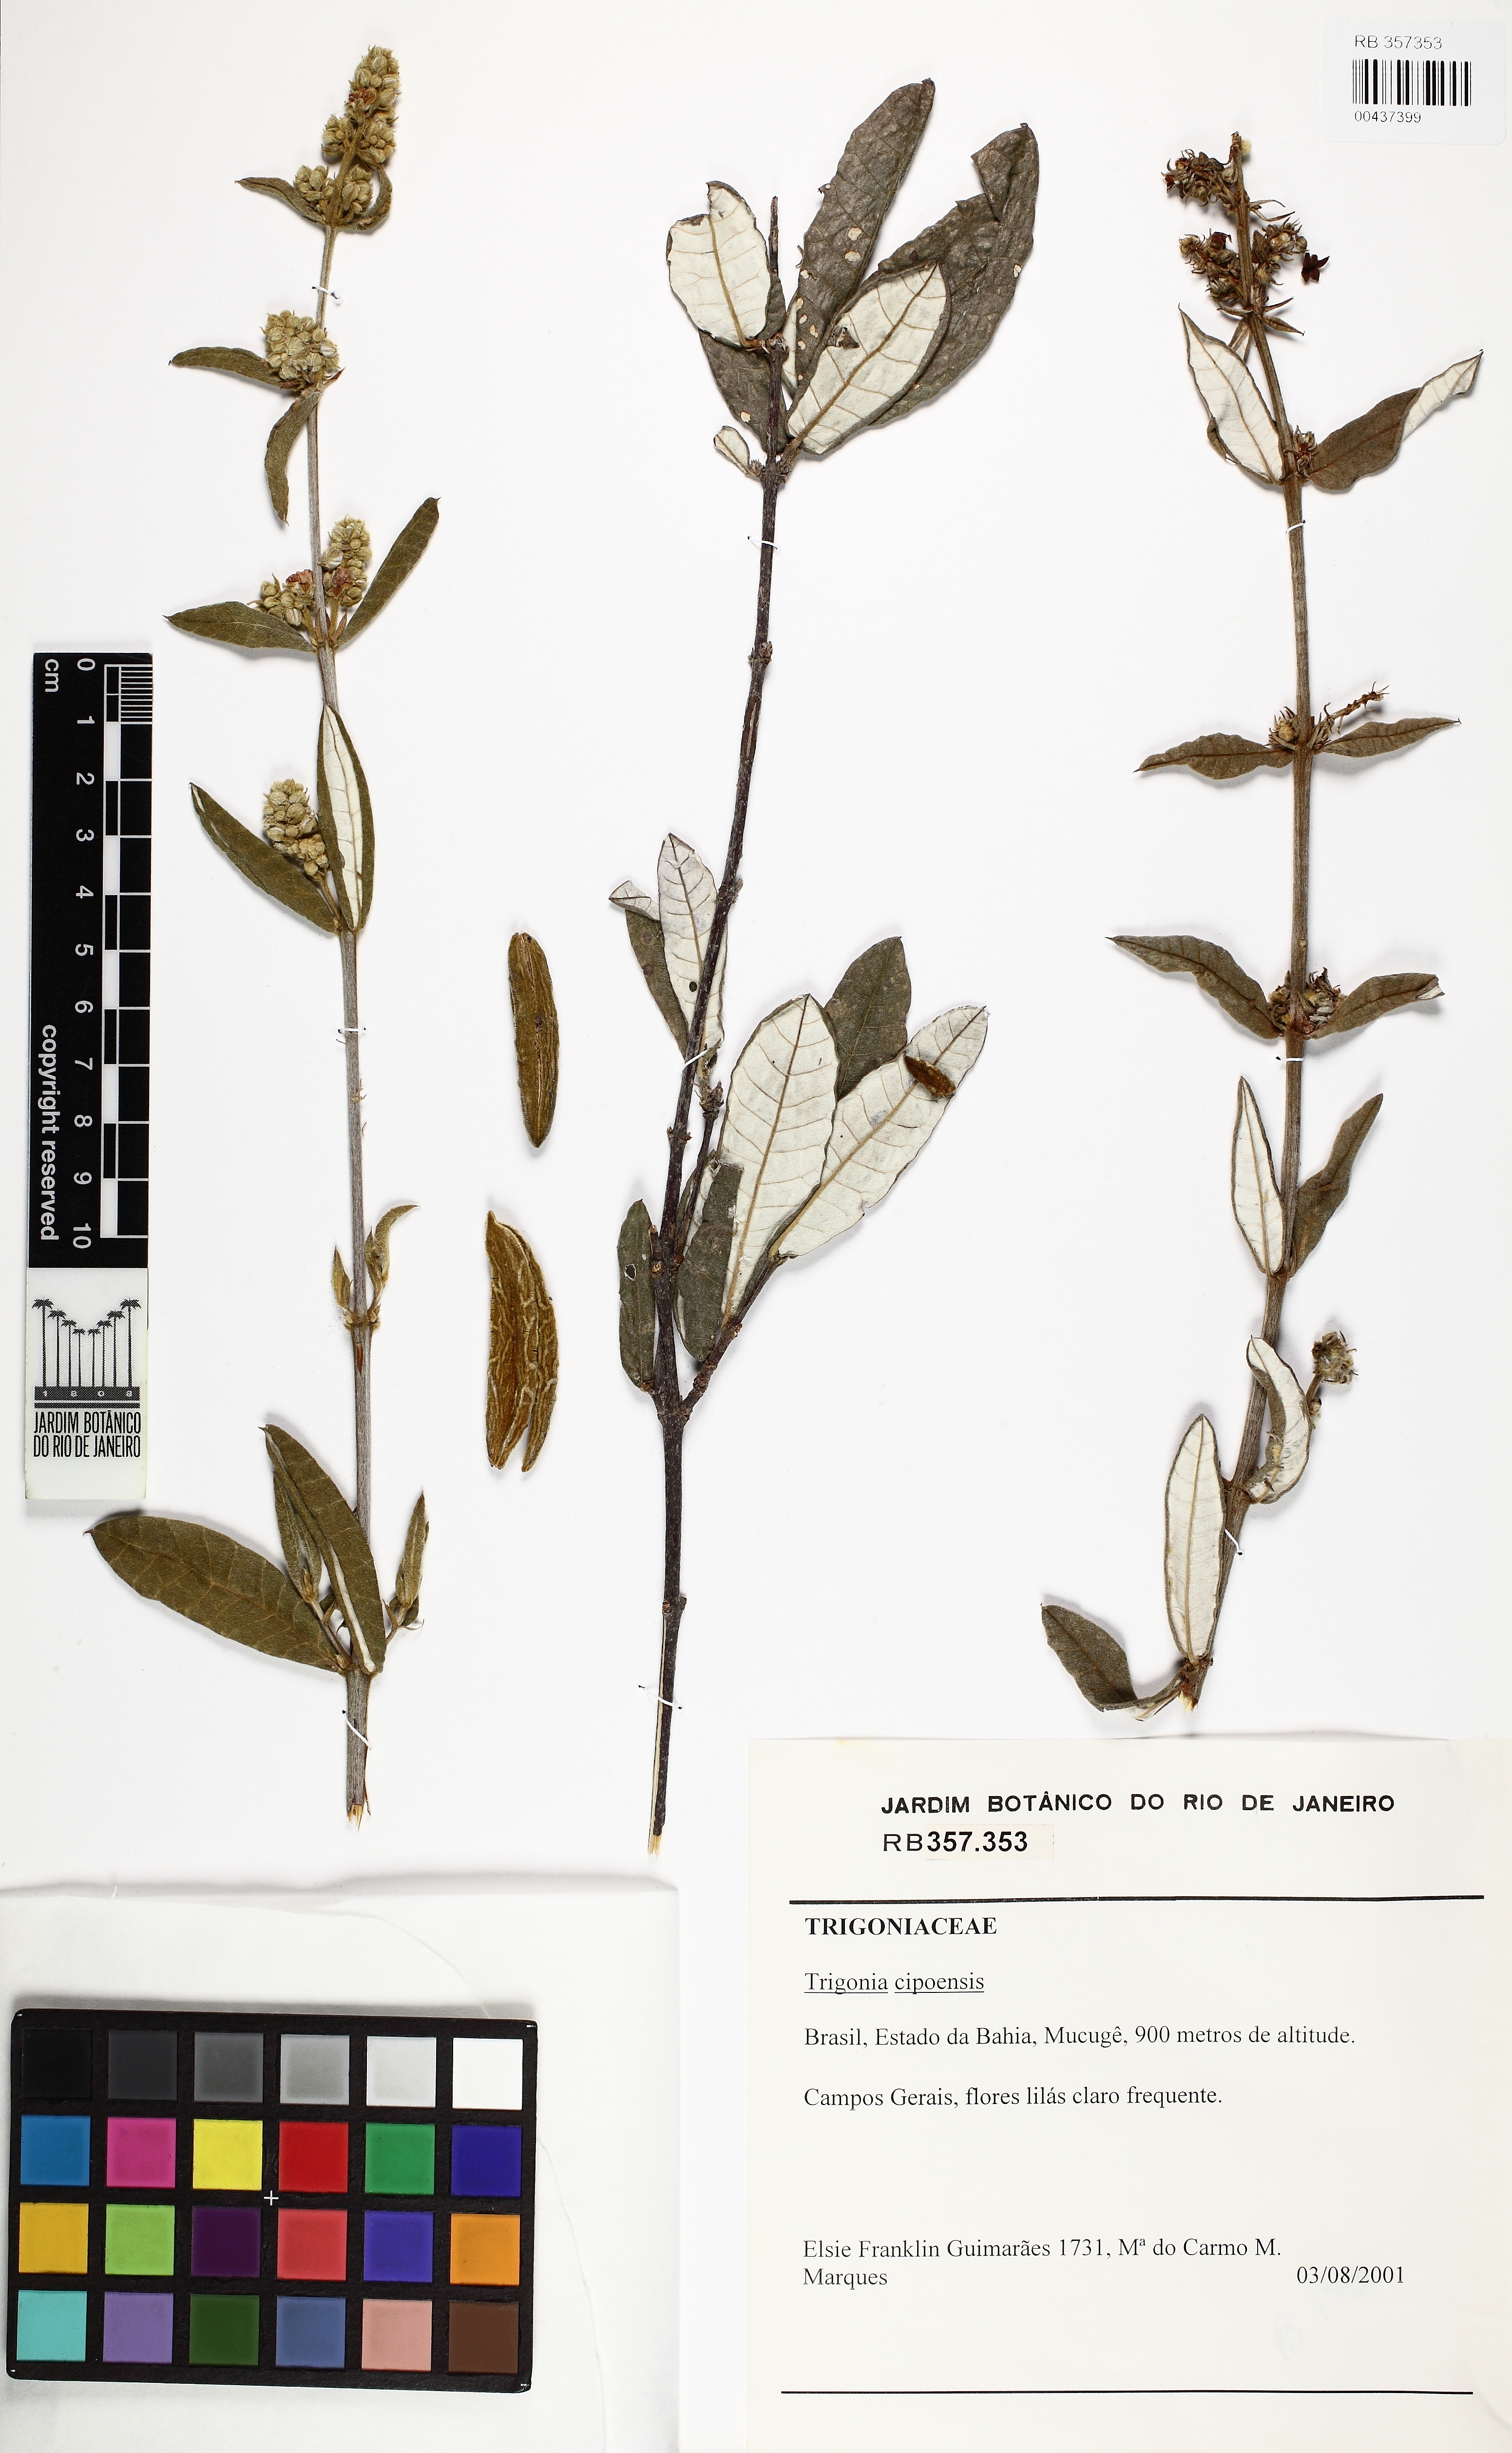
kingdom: Plantae
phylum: Tracheophyta
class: Magnoliopsida
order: Malpighiales
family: Trigoniaceae
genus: Trigonia
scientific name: Trigonia cipoensis
